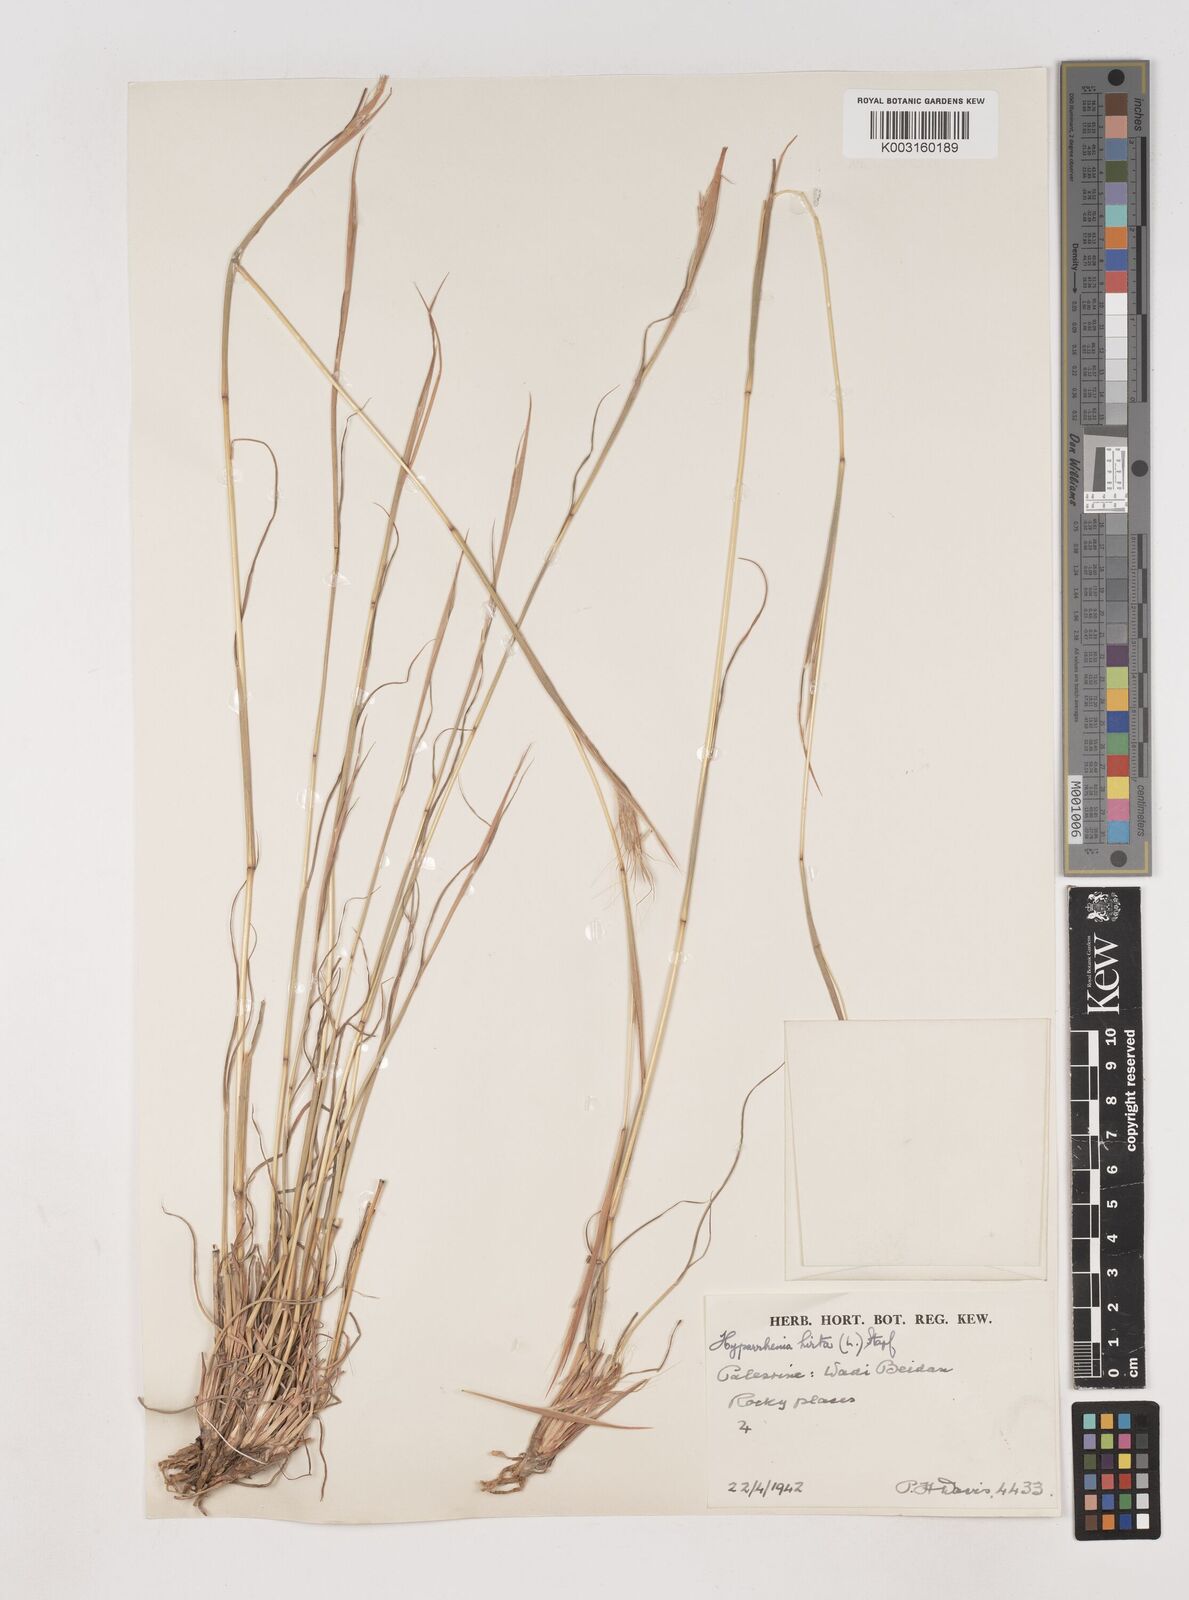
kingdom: Plantae
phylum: Tracheophyta
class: Liliopsida
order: Poales
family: Poaceae
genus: Hyparrhenia
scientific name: Hyparrhenia hirta
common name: Thatching grass
